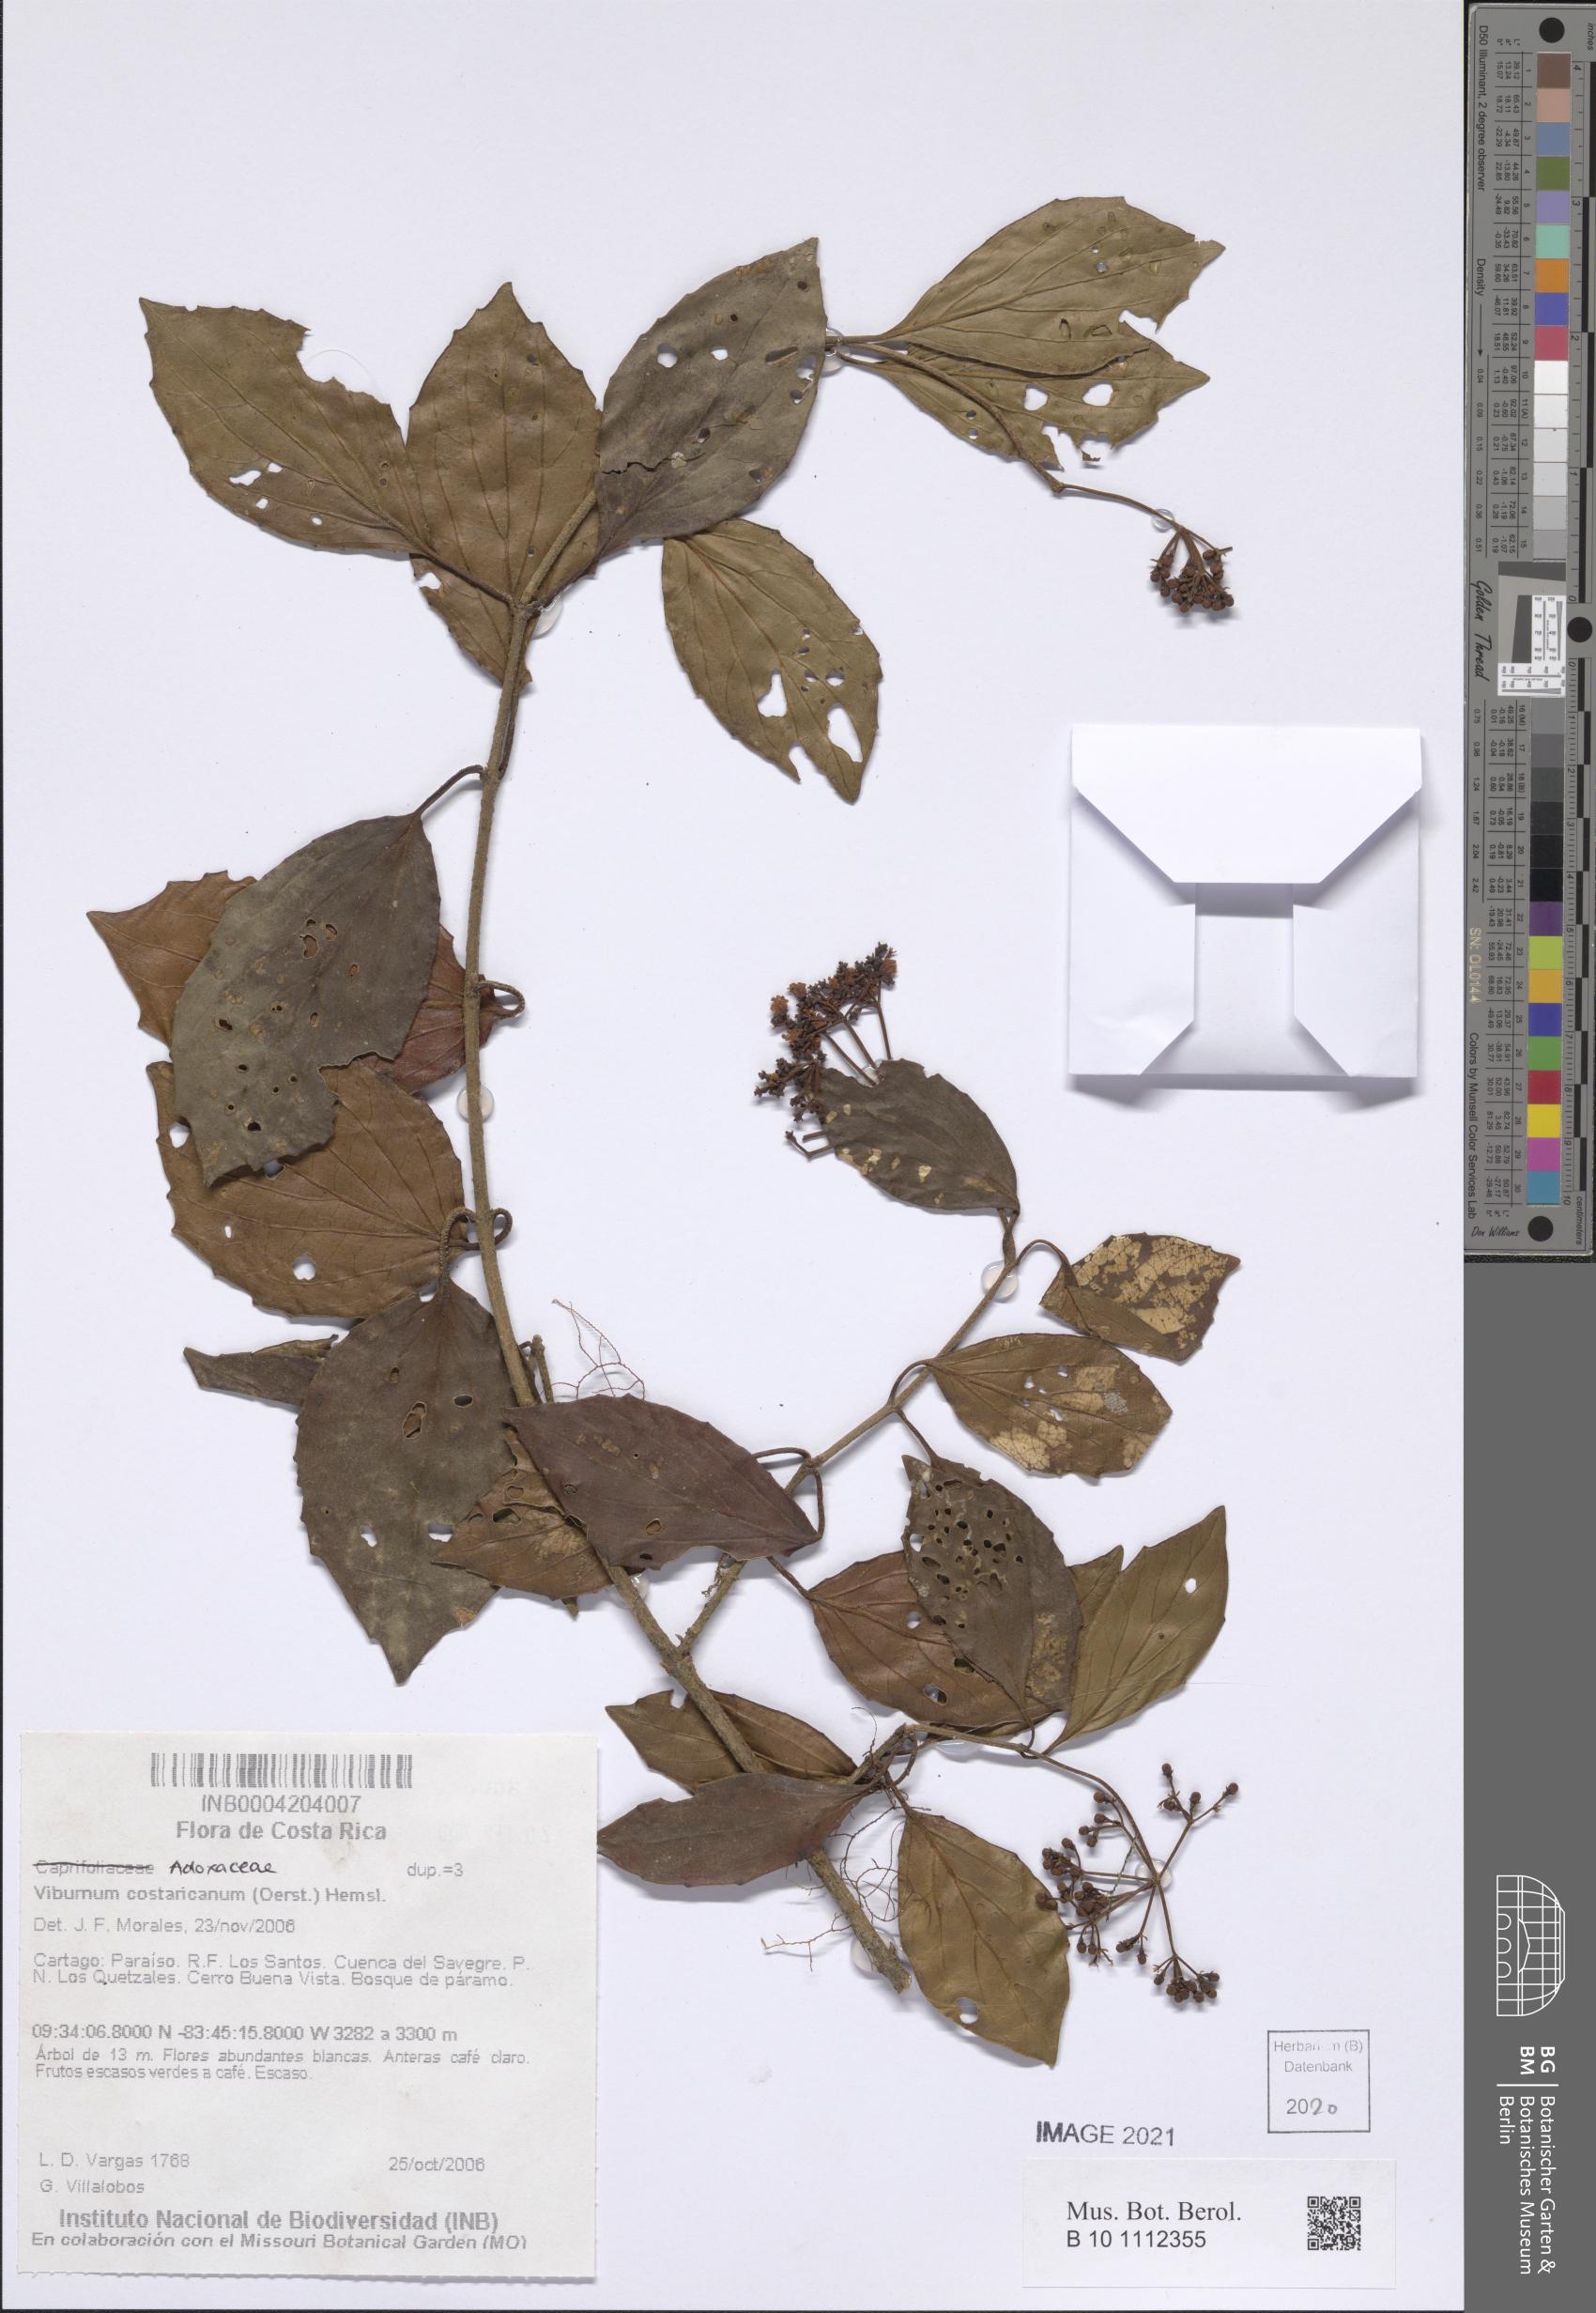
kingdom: Plantae
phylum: Tracheophyta
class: Magnoliopsida
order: Dipsacales
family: Viburnaceae
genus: Viburnum
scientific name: Viburnum costaricanum
